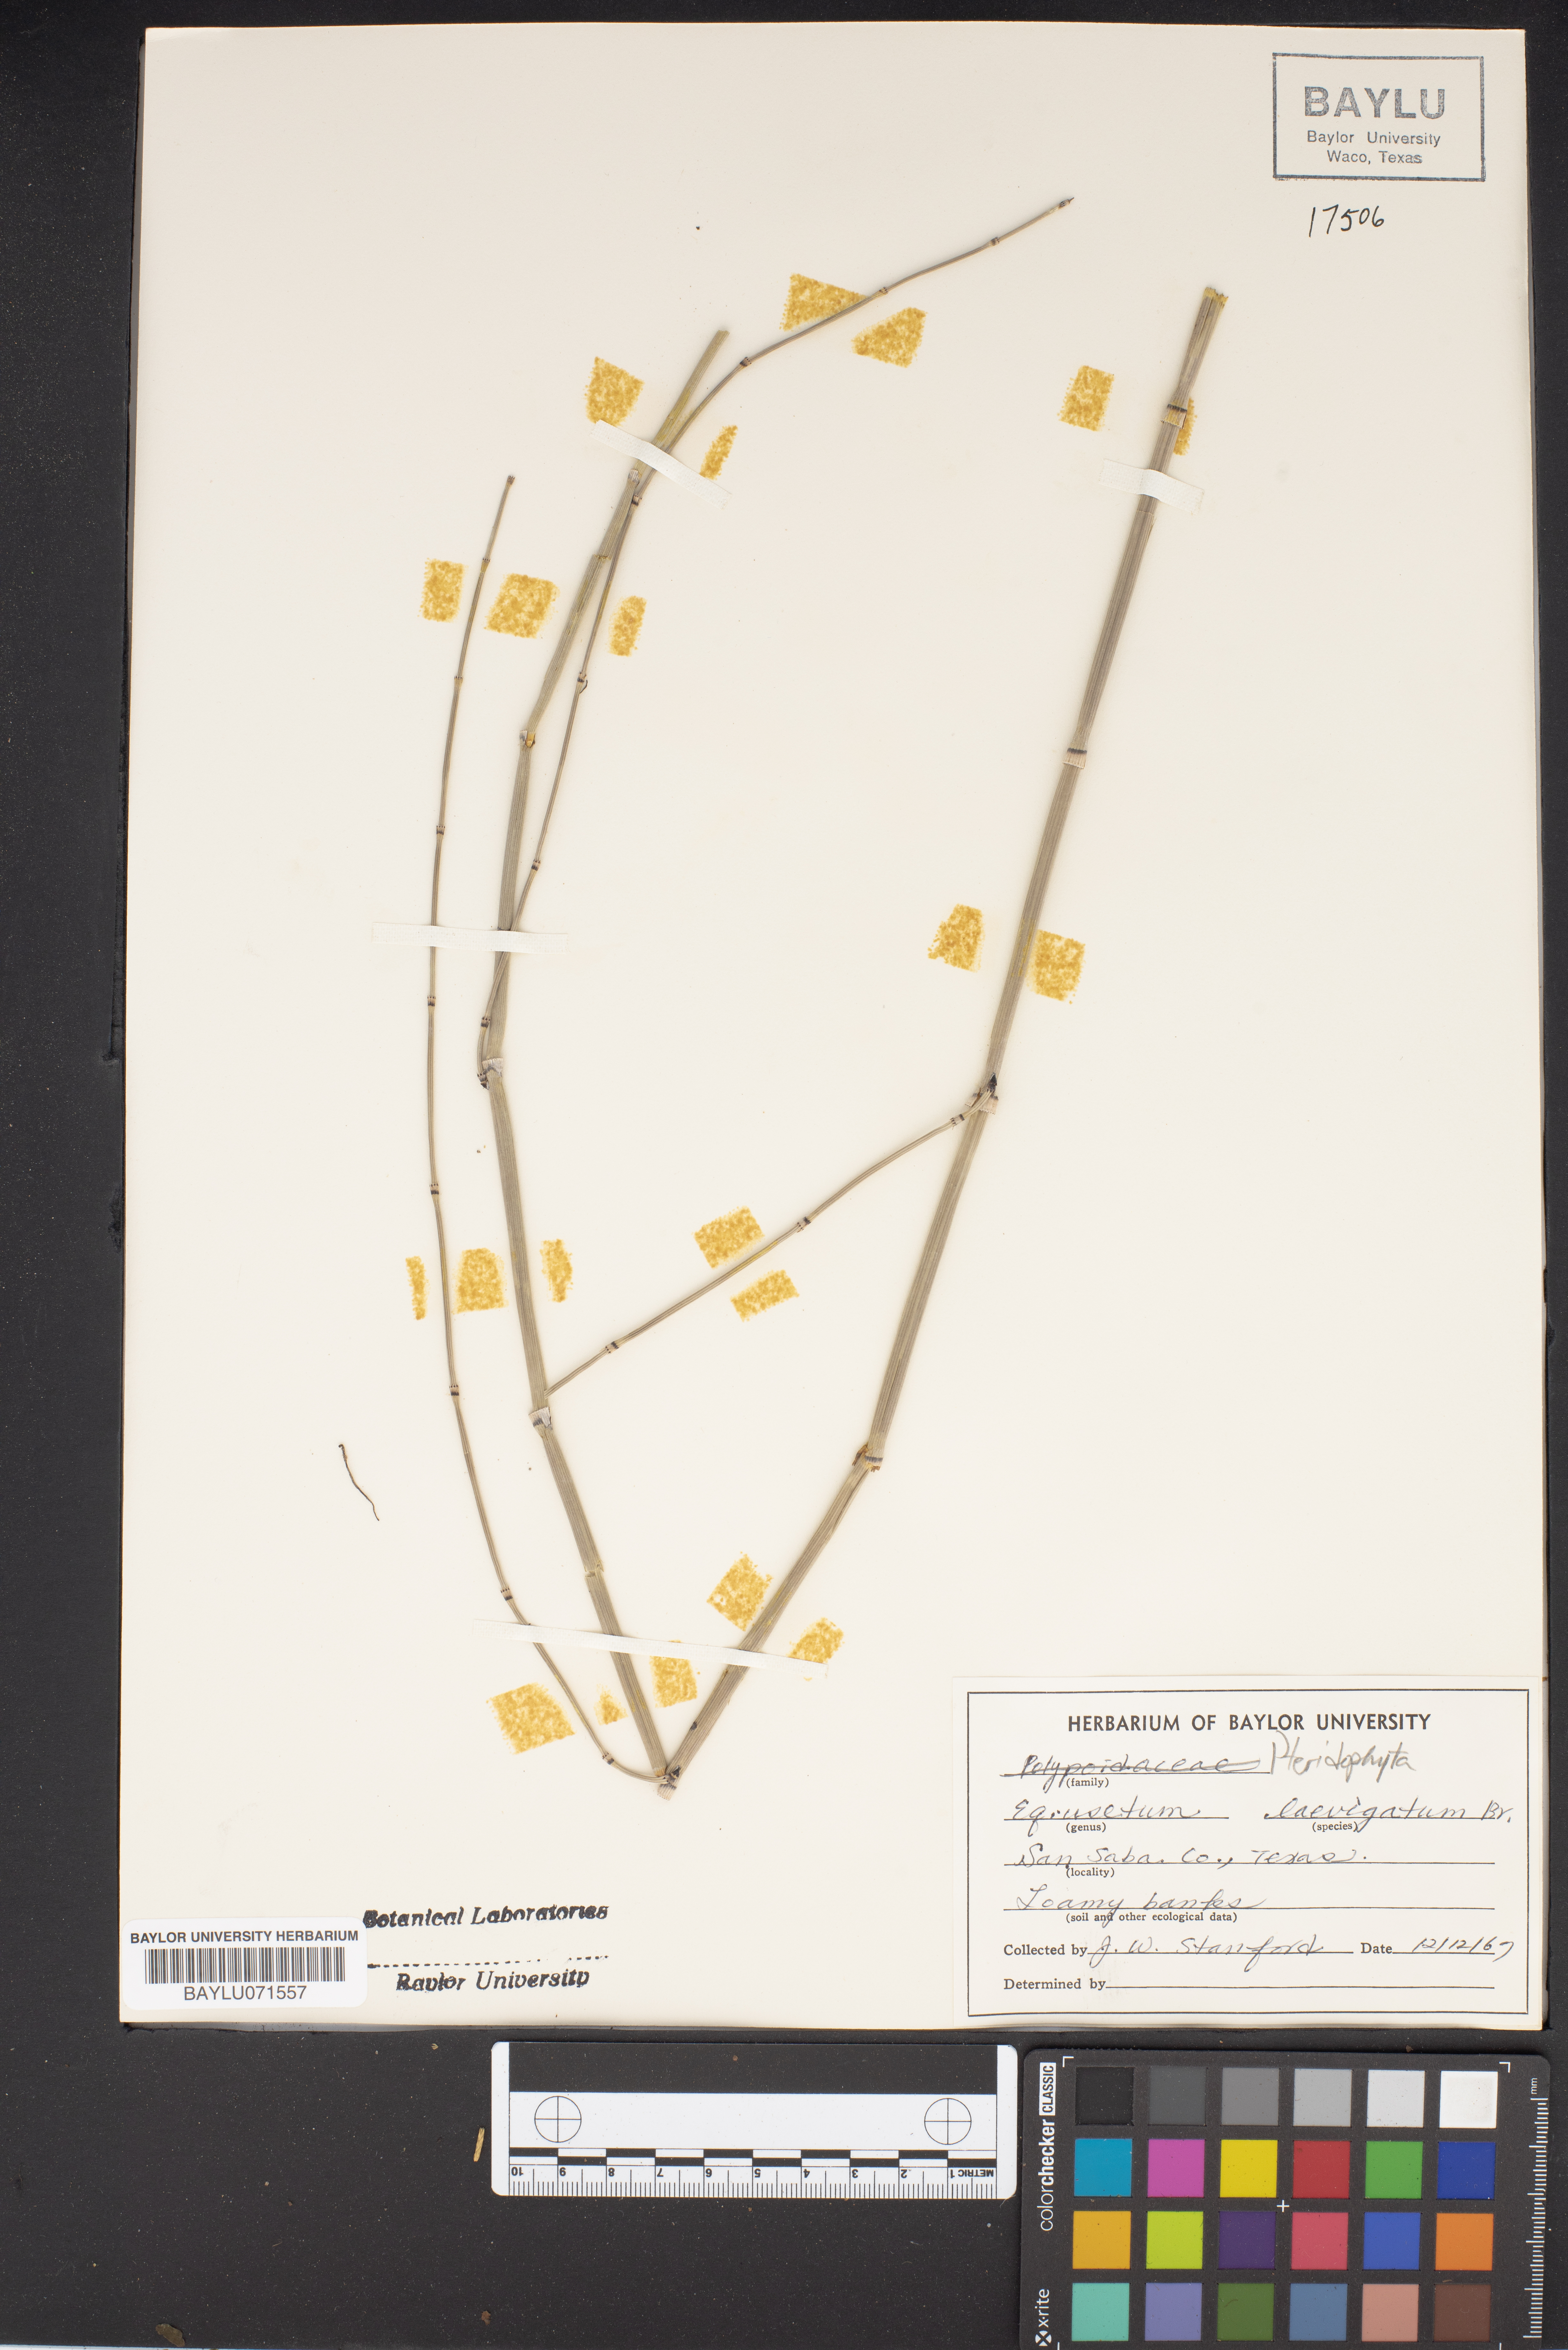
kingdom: Plantae
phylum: Tracheophyta
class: Polypodiopsida
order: Equisetales
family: Equisetaceae
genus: Equisetum
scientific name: Equisetum laevigatum
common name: Smooth scouring-rush
